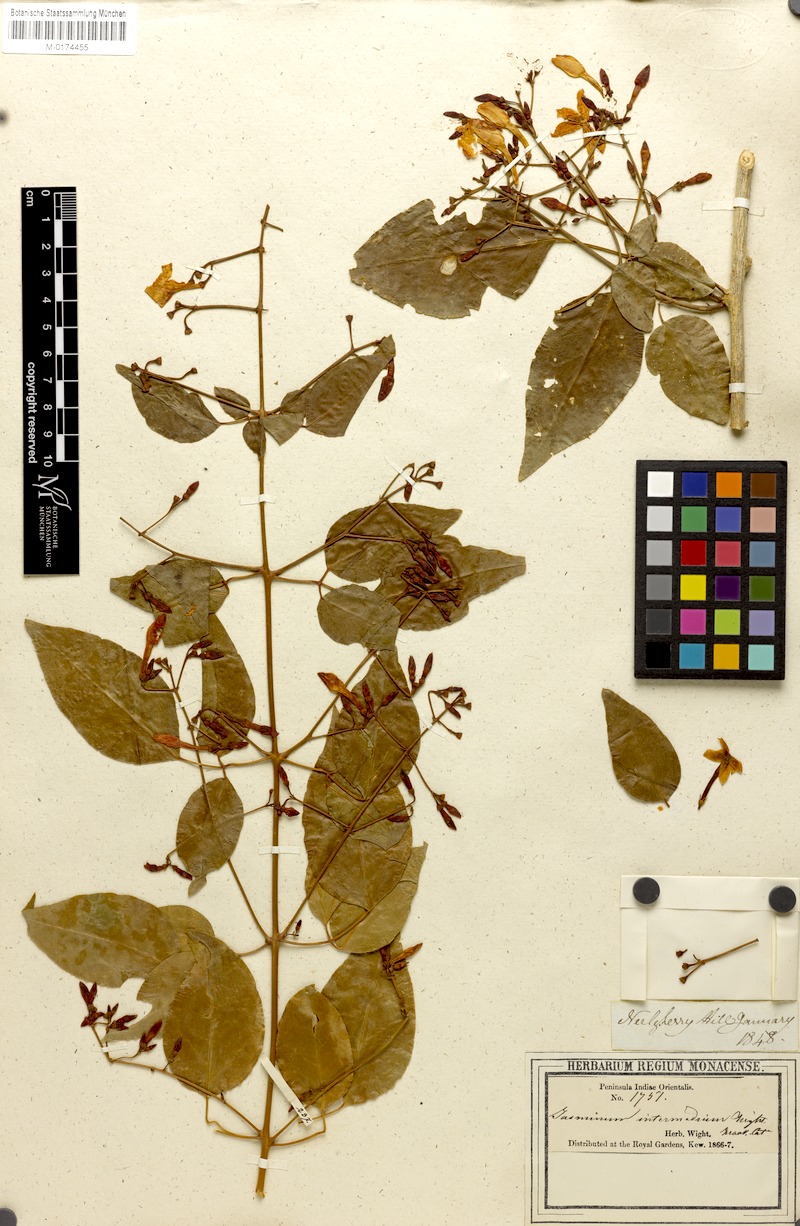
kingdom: Plantae
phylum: Tracheophyta
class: Magnoliopsida
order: Lamiales
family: Oleaceae
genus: Jasminum
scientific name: Jasminum trichotomum
